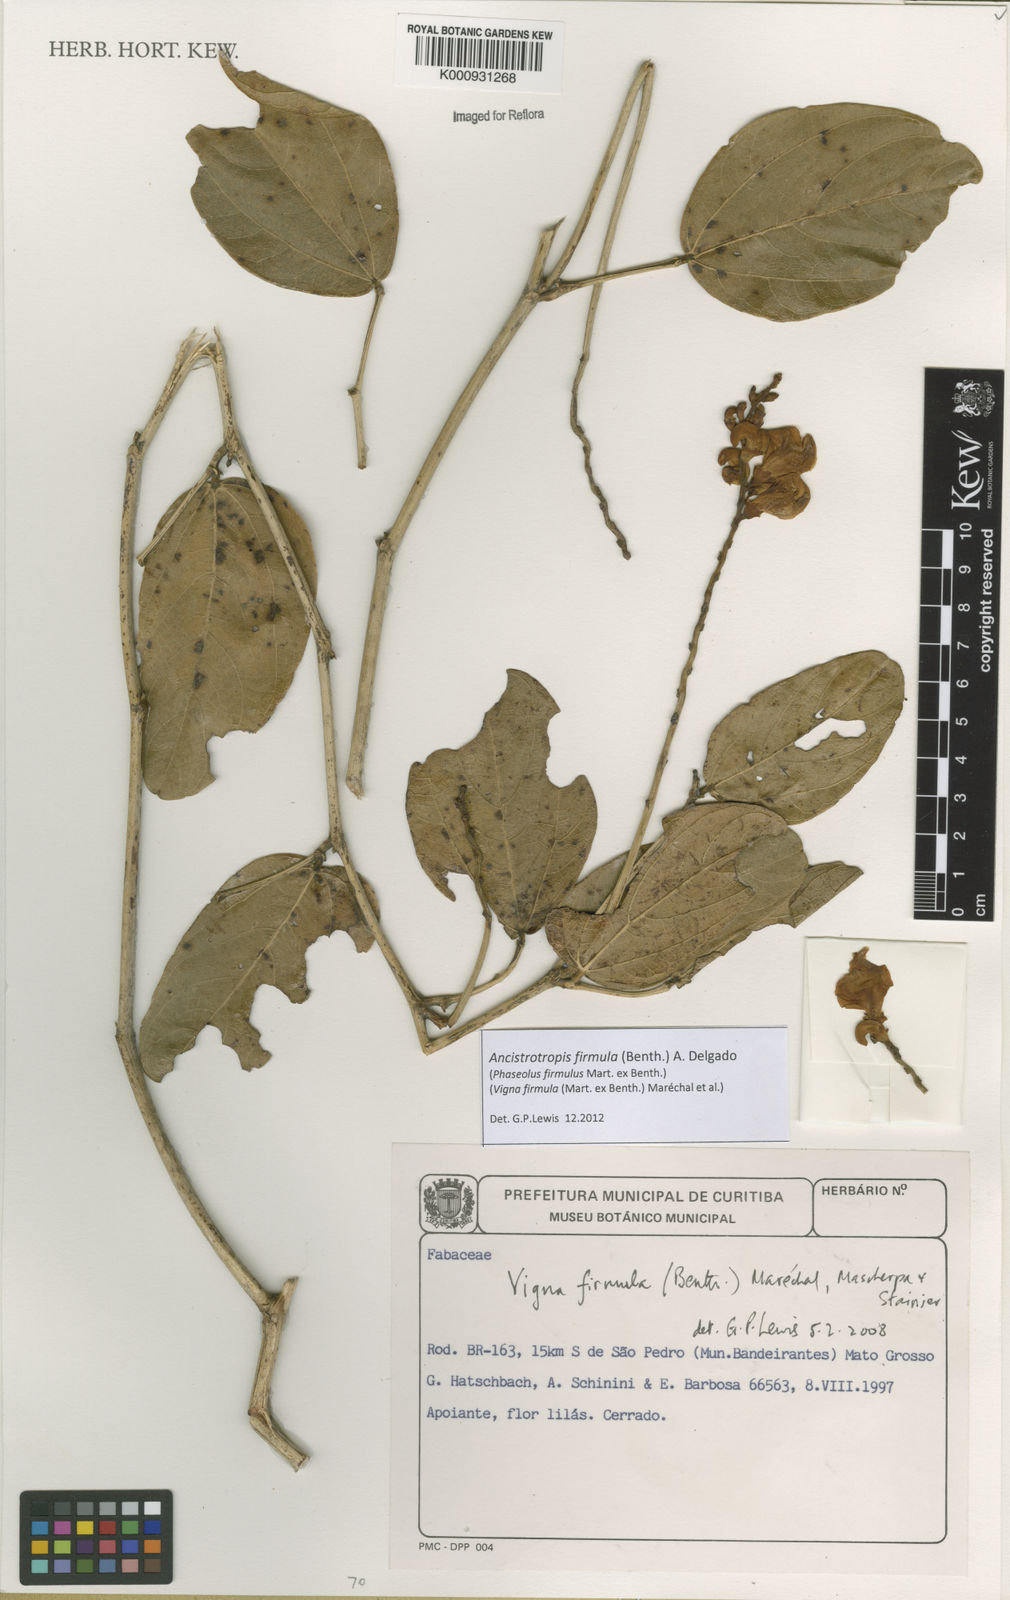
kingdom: Plantae
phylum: Tracheophyta
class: Magnoliopsida
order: Fabales
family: Fabaceae
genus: Ancistrotropis
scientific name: Ancistrotropis firmula
